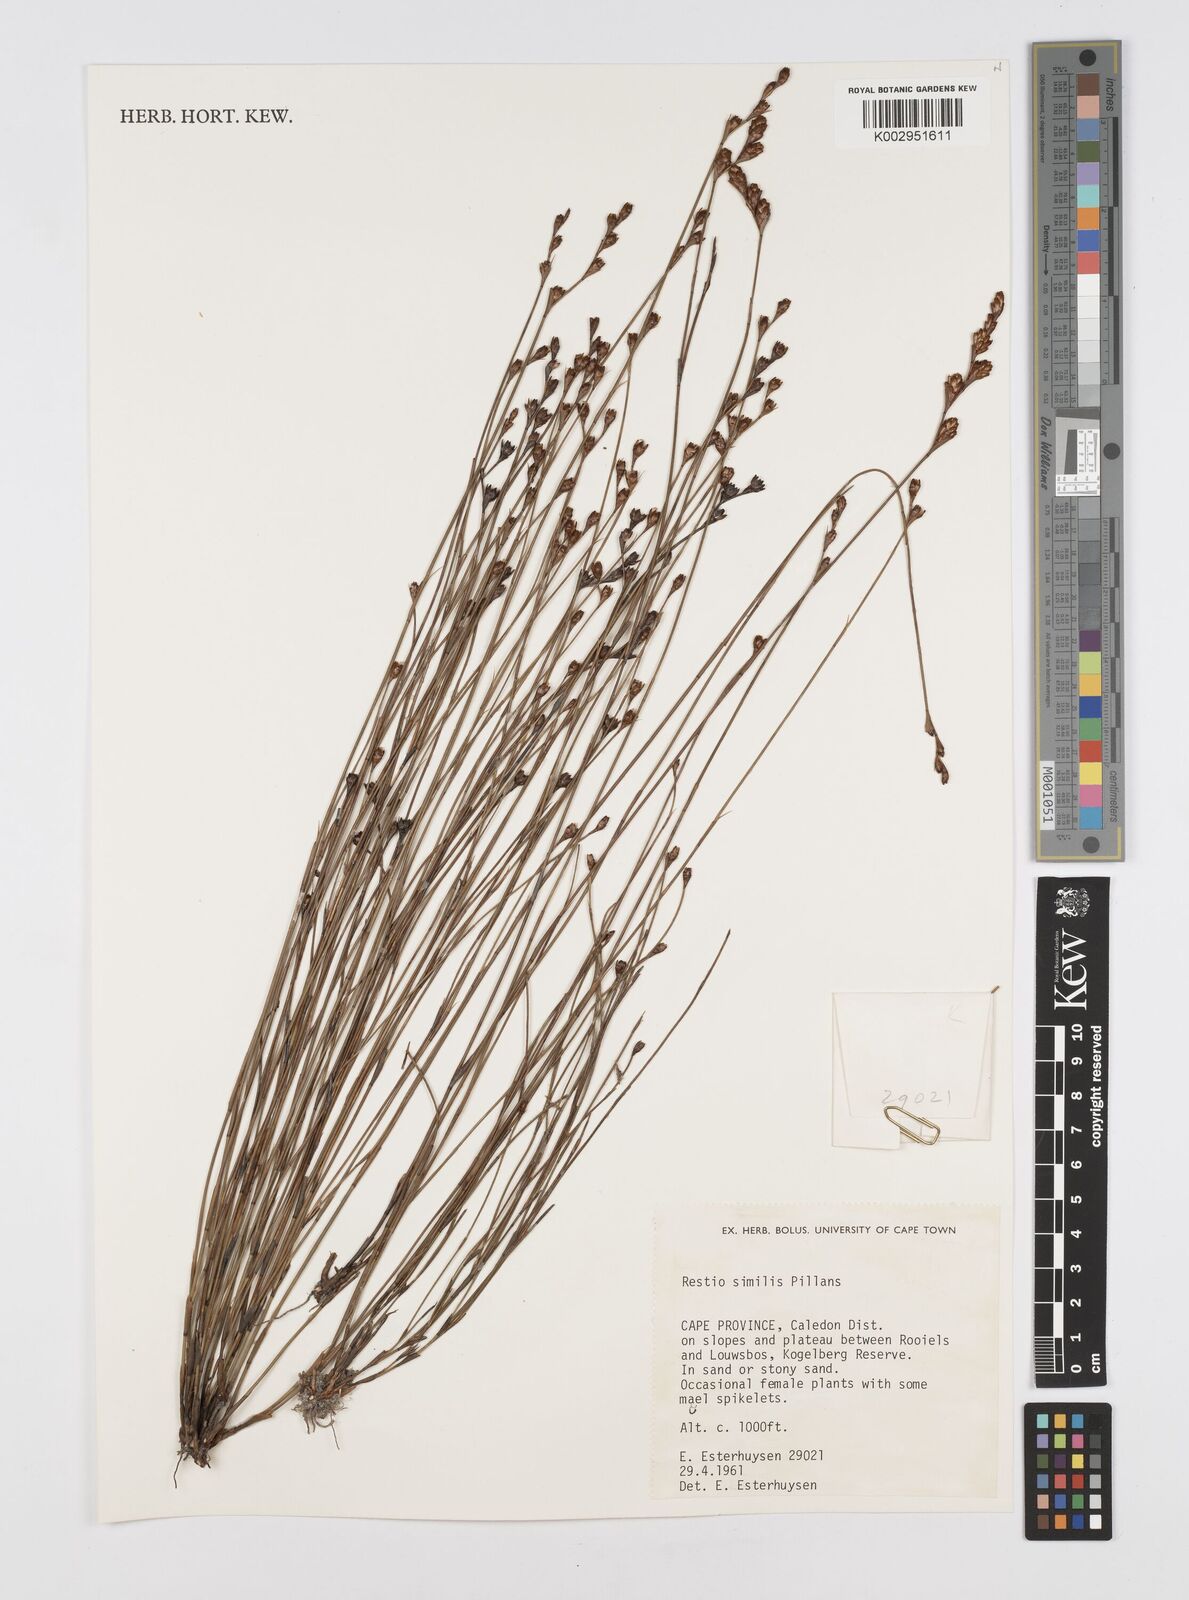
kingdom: Plantae
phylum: Tracheophyta
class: Liliopsida
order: Poales
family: Restionaceae
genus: Restio
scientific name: Restio similis
